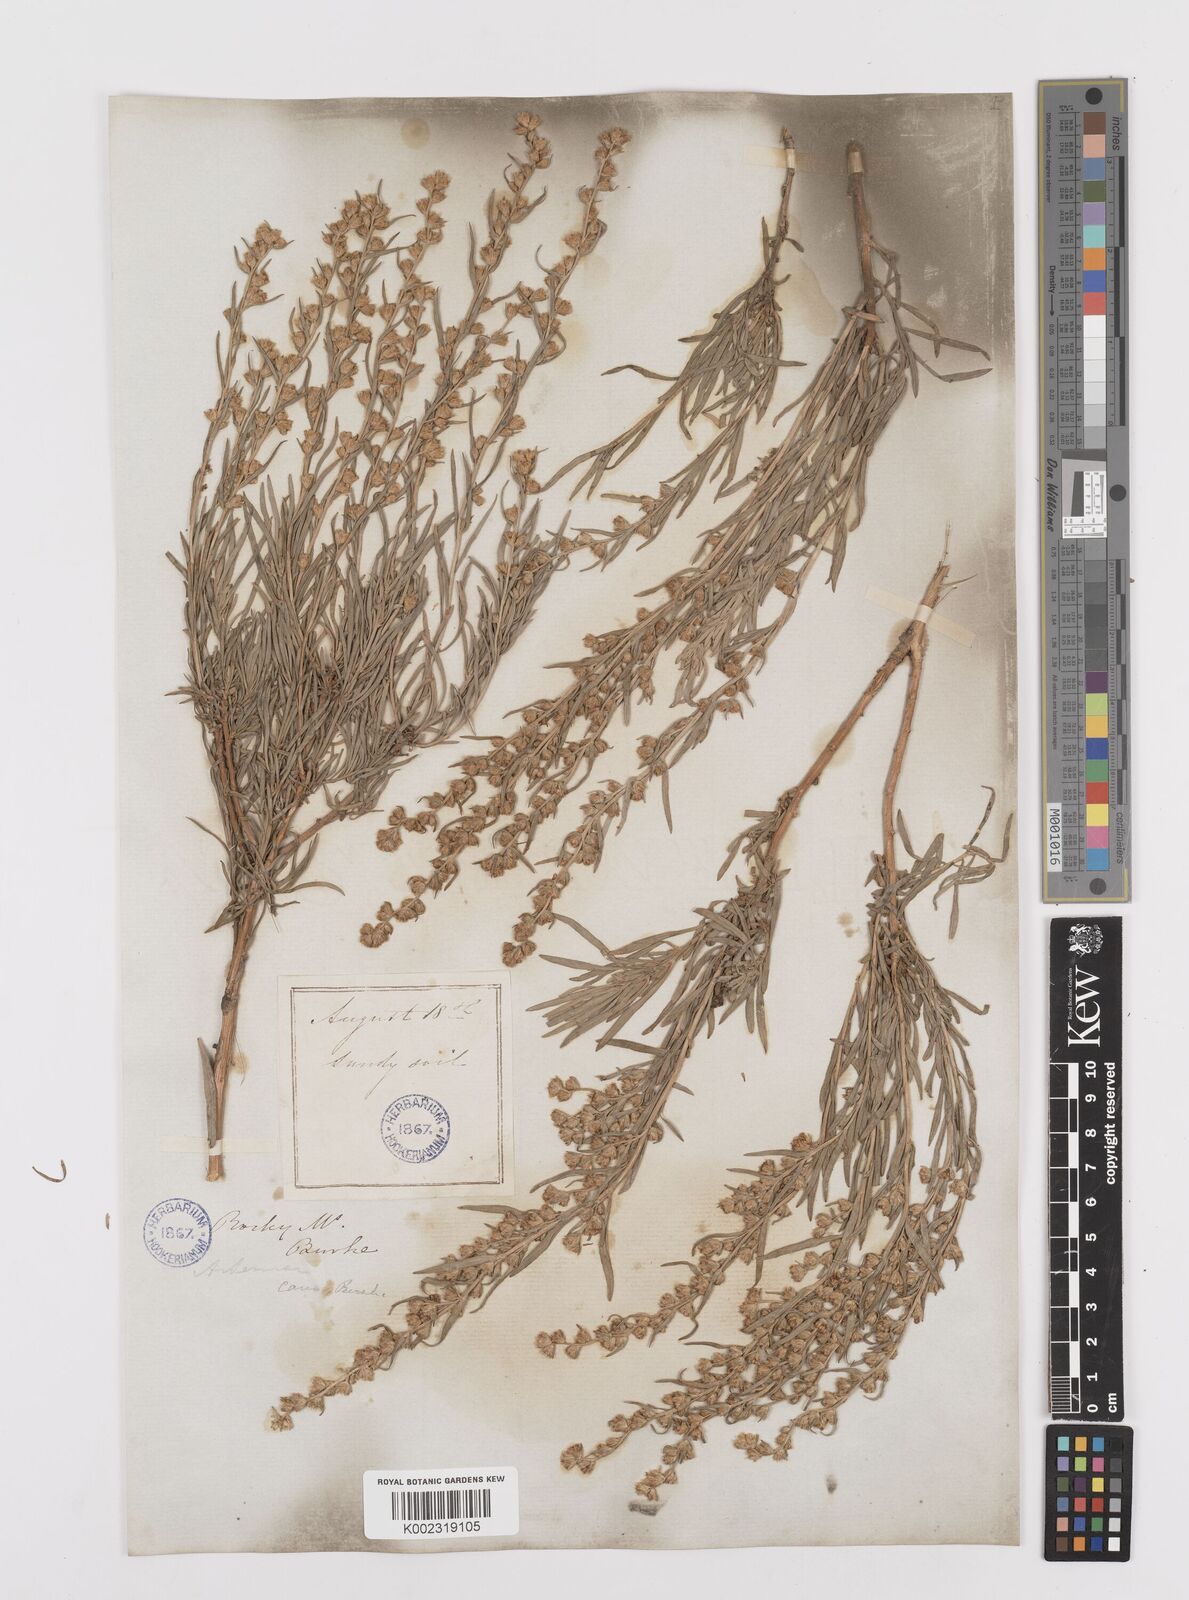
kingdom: Plantae
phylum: Tracheophyta
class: Magnoliopsida
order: Asterales
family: Asteraceae
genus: Artemisia
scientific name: Artemisia cana
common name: Silver sagebrush
